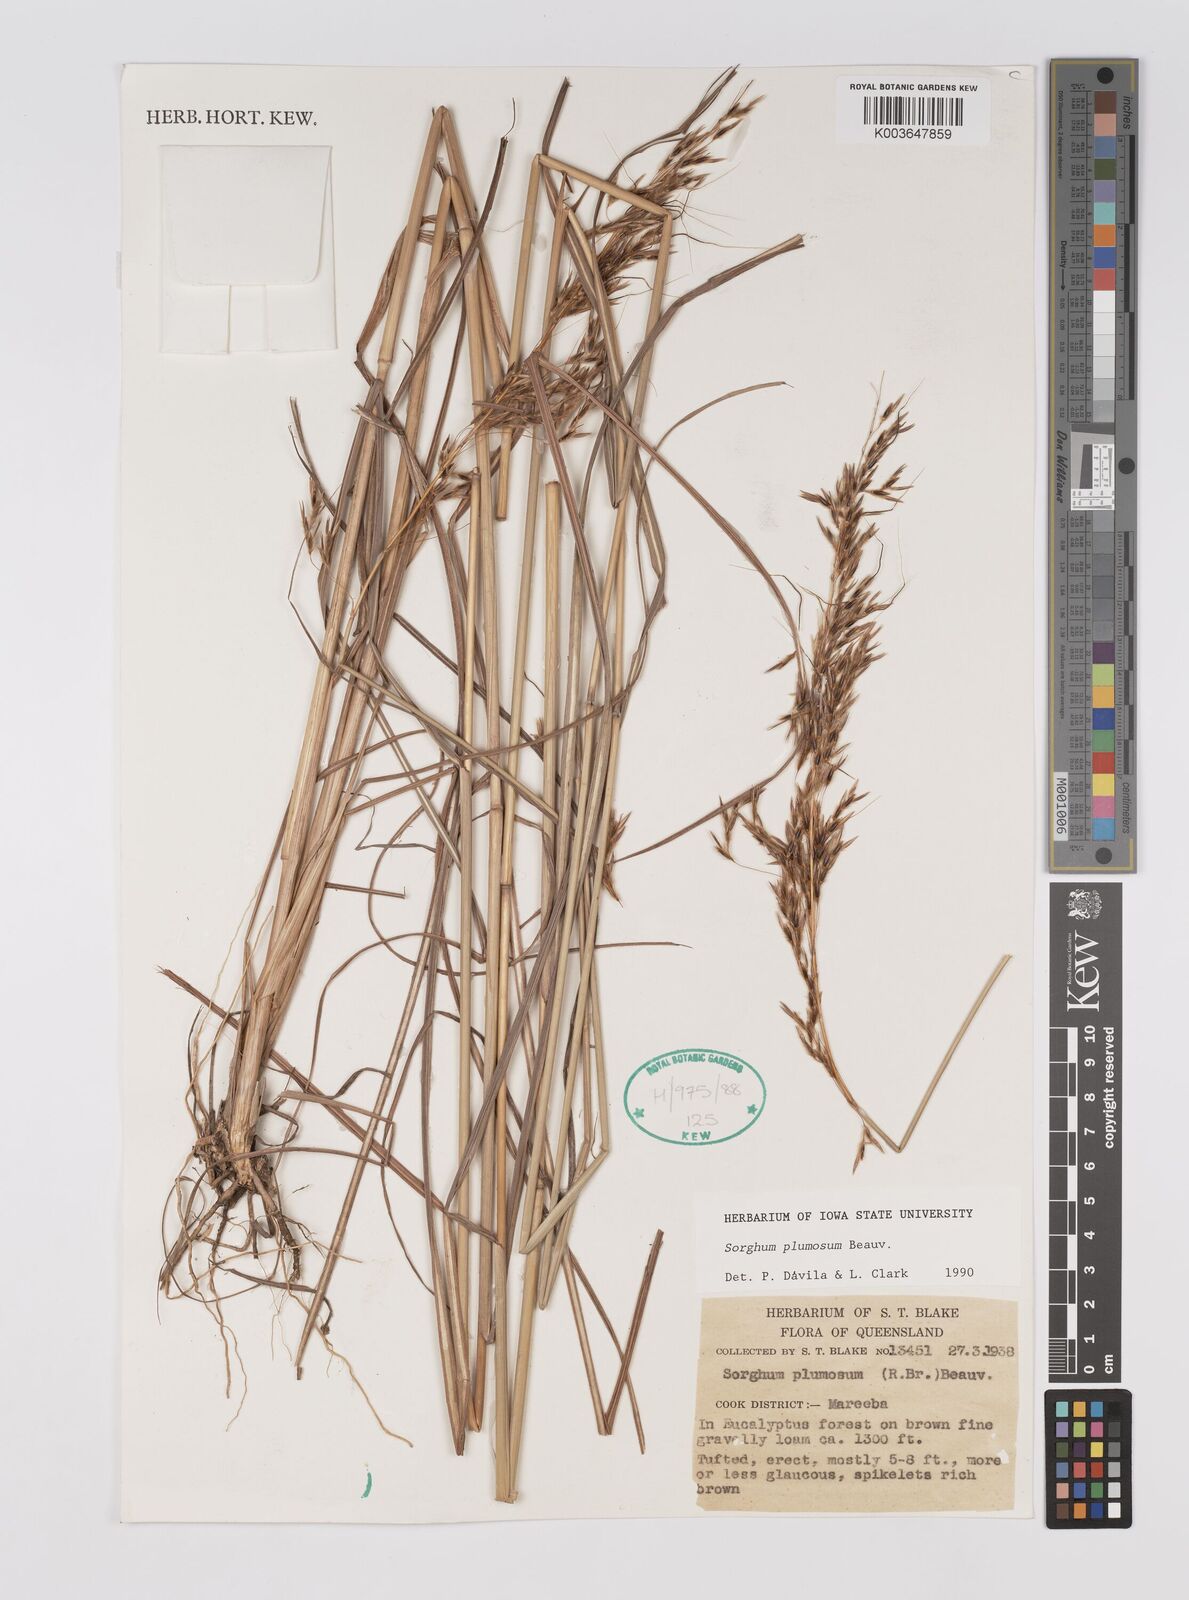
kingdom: Plantae
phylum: Tracheophyta
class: Liliopsida
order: Poales
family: Poaceae
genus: Sarga
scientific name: Sarga plumosa
